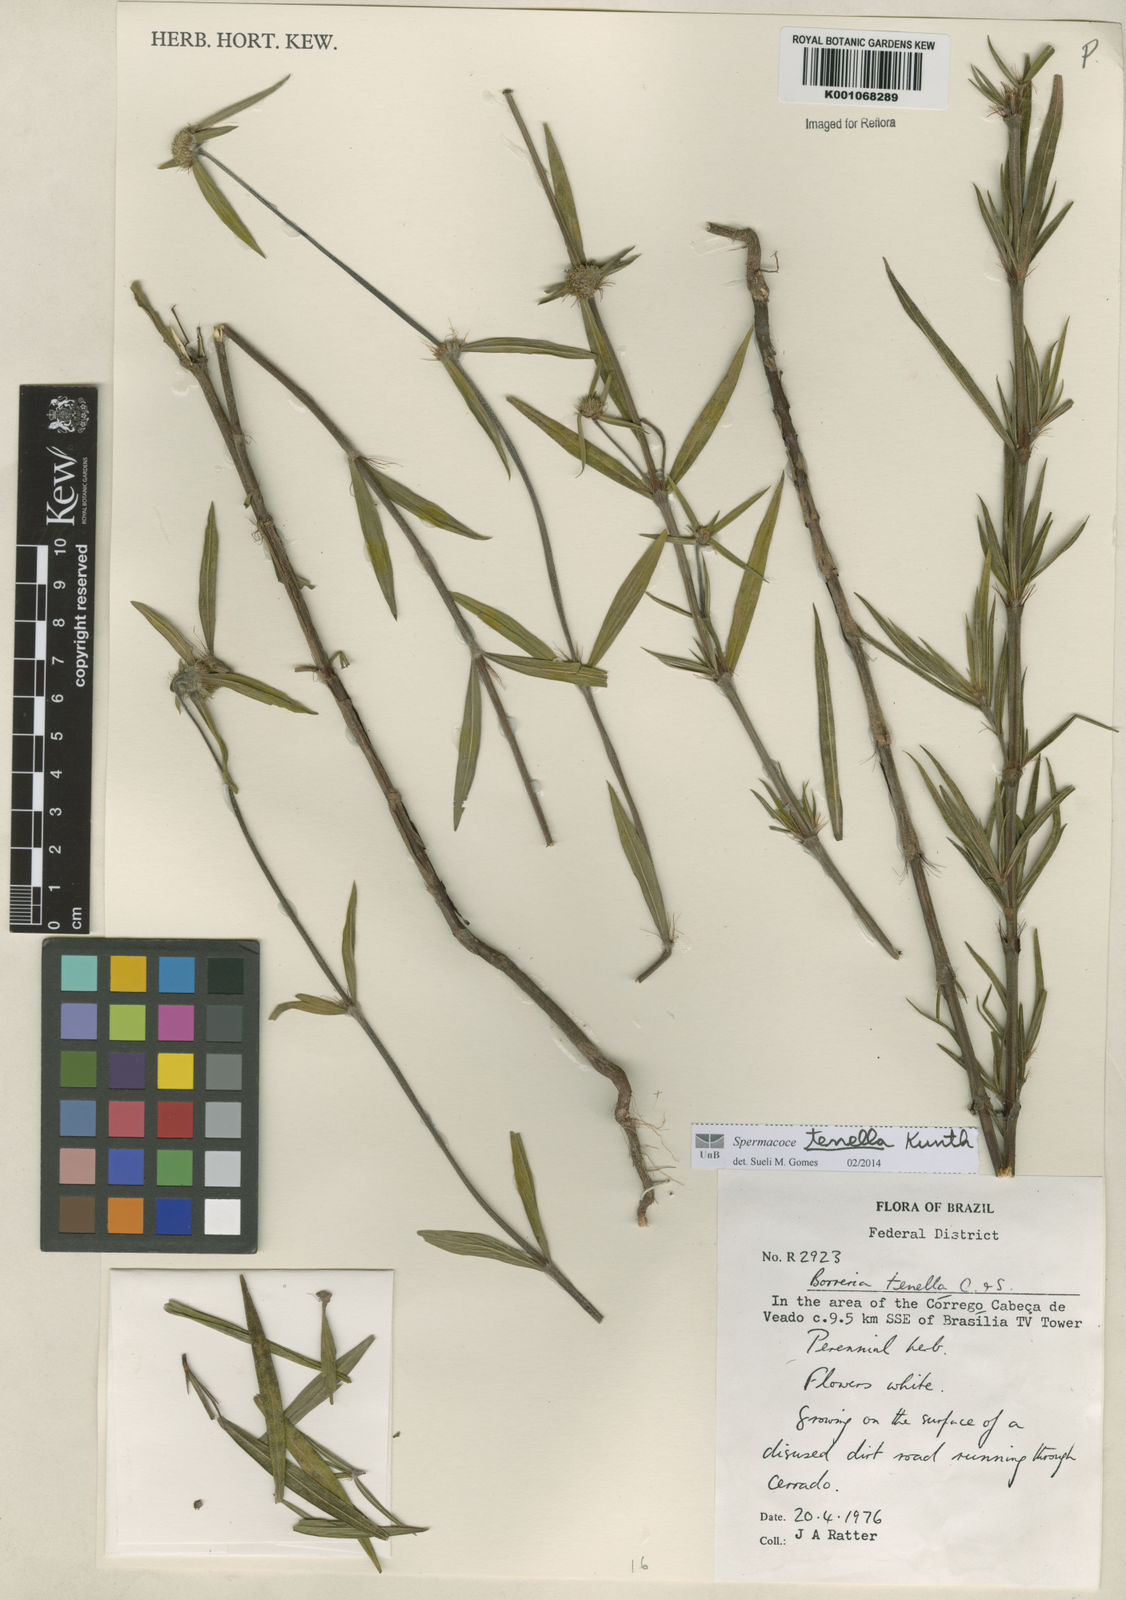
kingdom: Plantae
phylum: Tracheophyta
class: Magnoliopsida
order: Gentianales
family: Rubiaceae
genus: Spermacoce
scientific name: Spermacoce orinocensis
